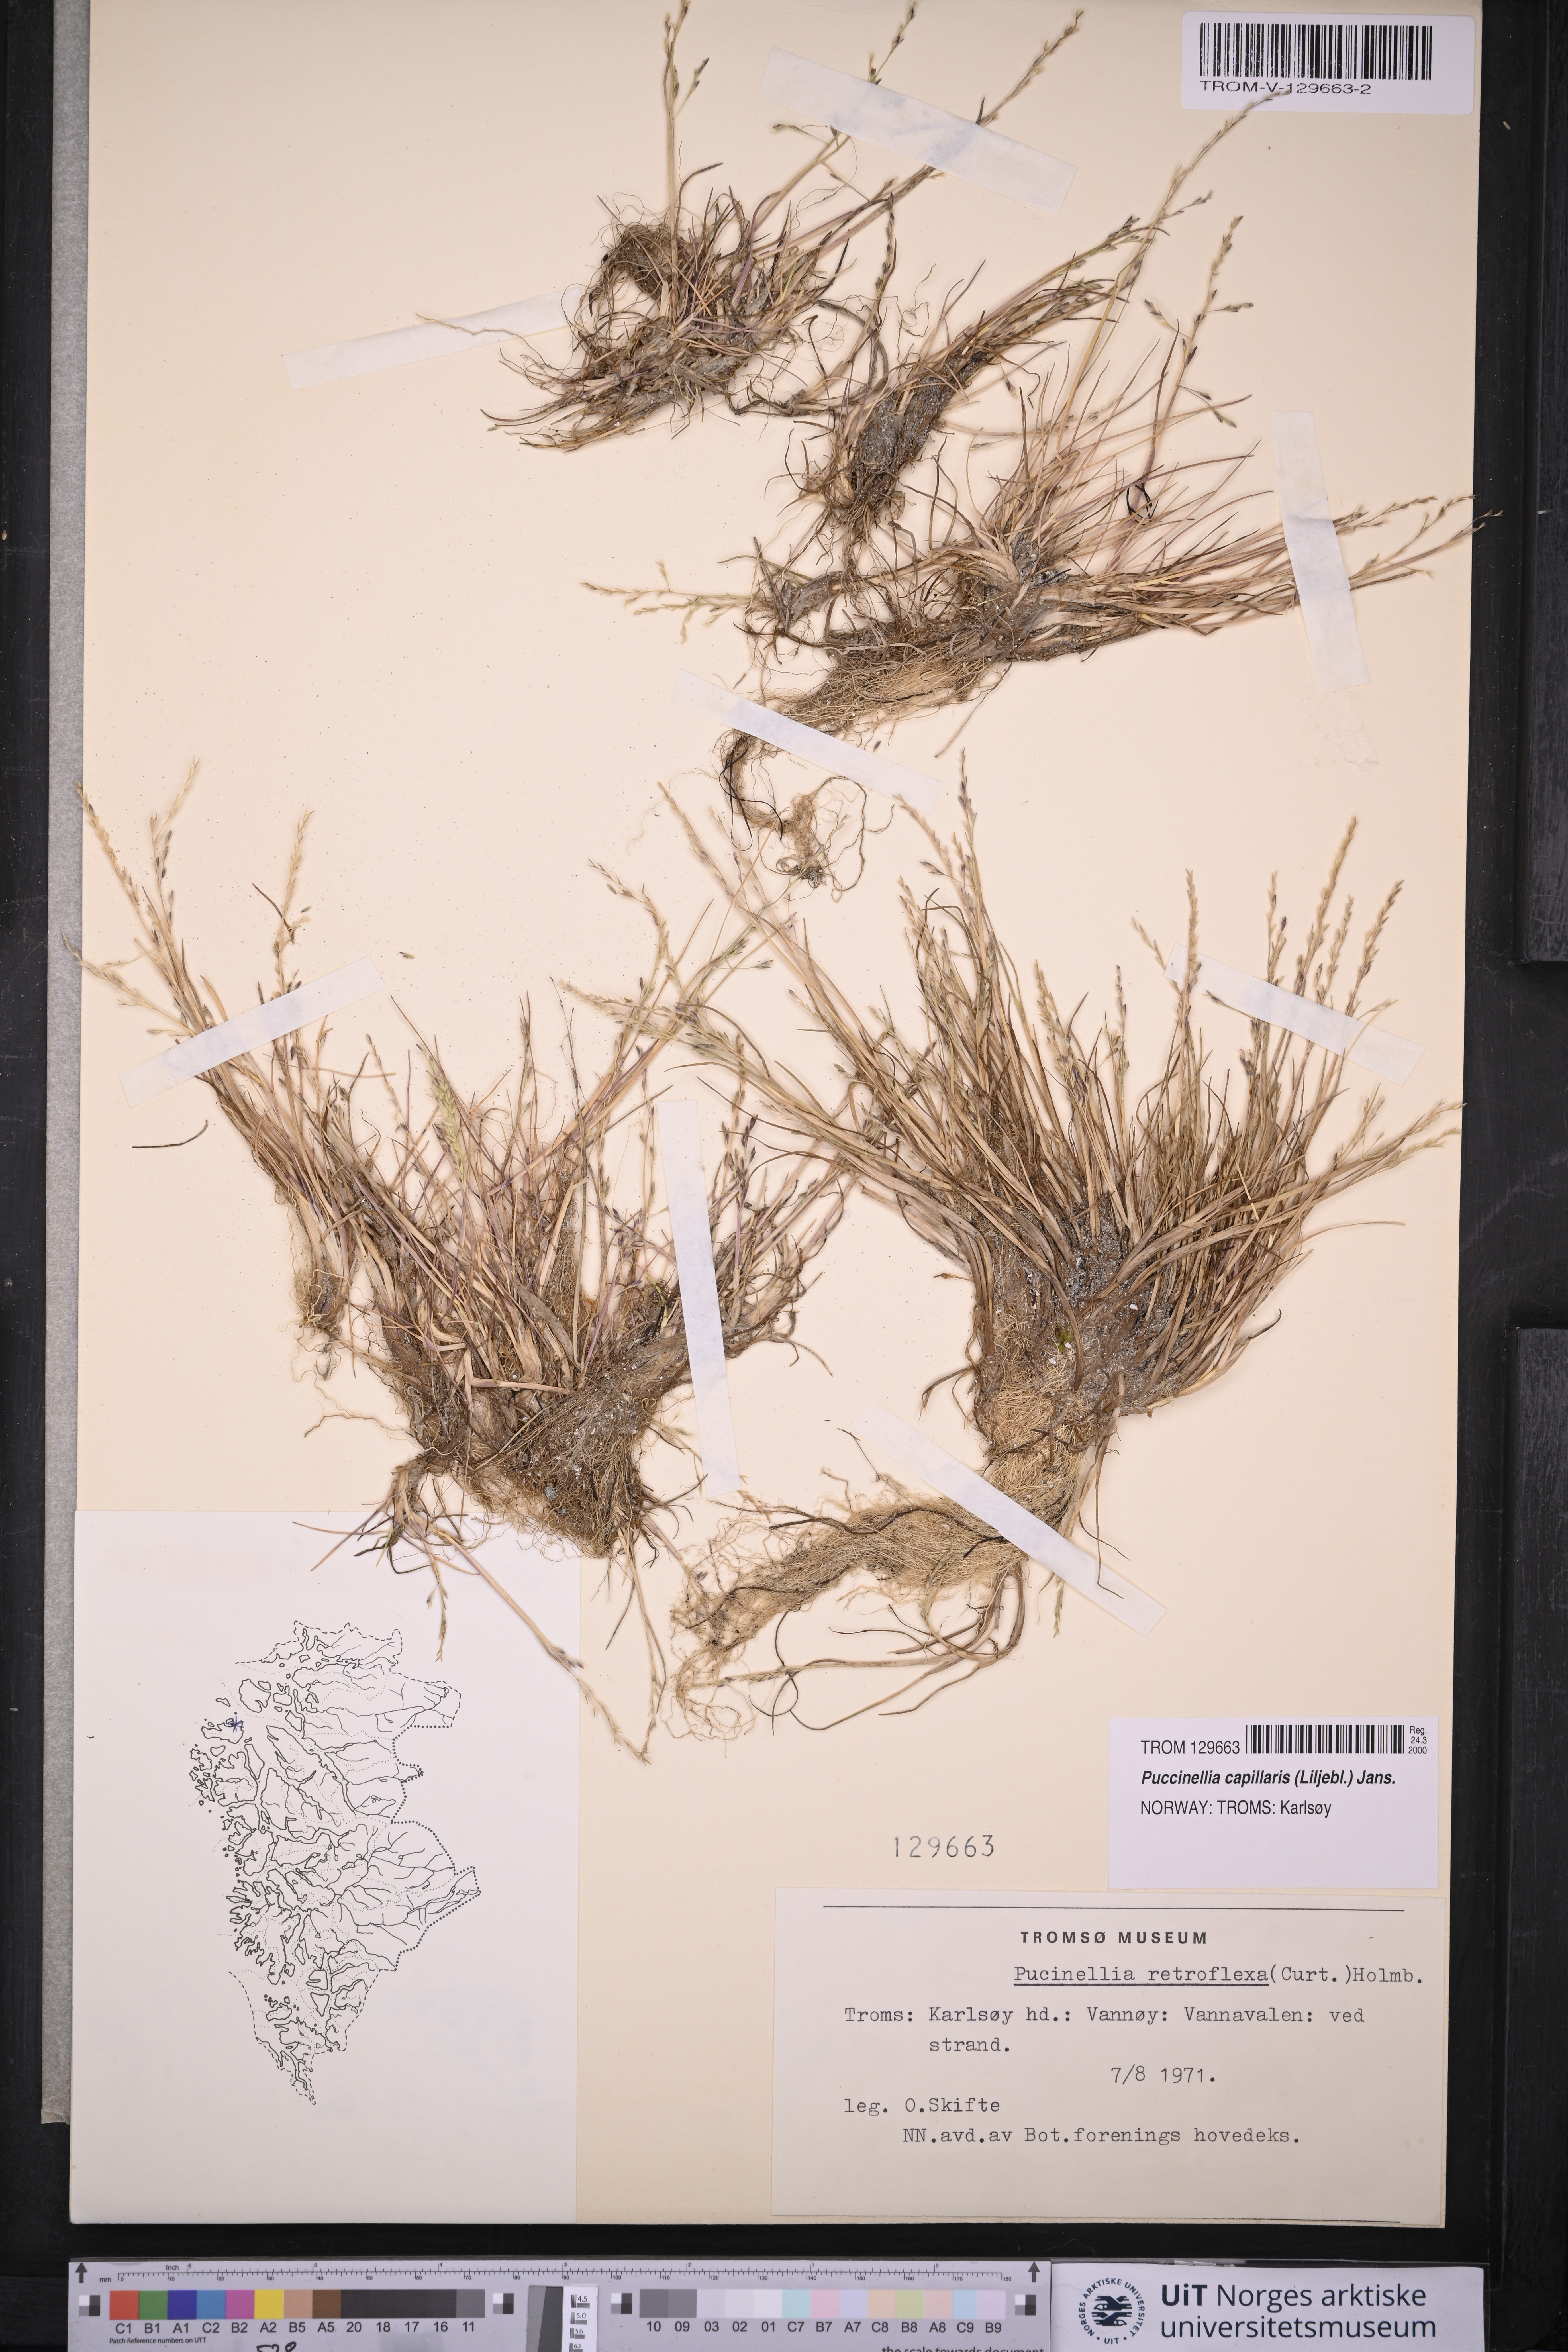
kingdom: Plantae
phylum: Tracheophyta
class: Liliopsida
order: Poales
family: Poaceae
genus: Puccinellia
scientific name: Puccinellia distans
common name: Weeping alkaligrass
